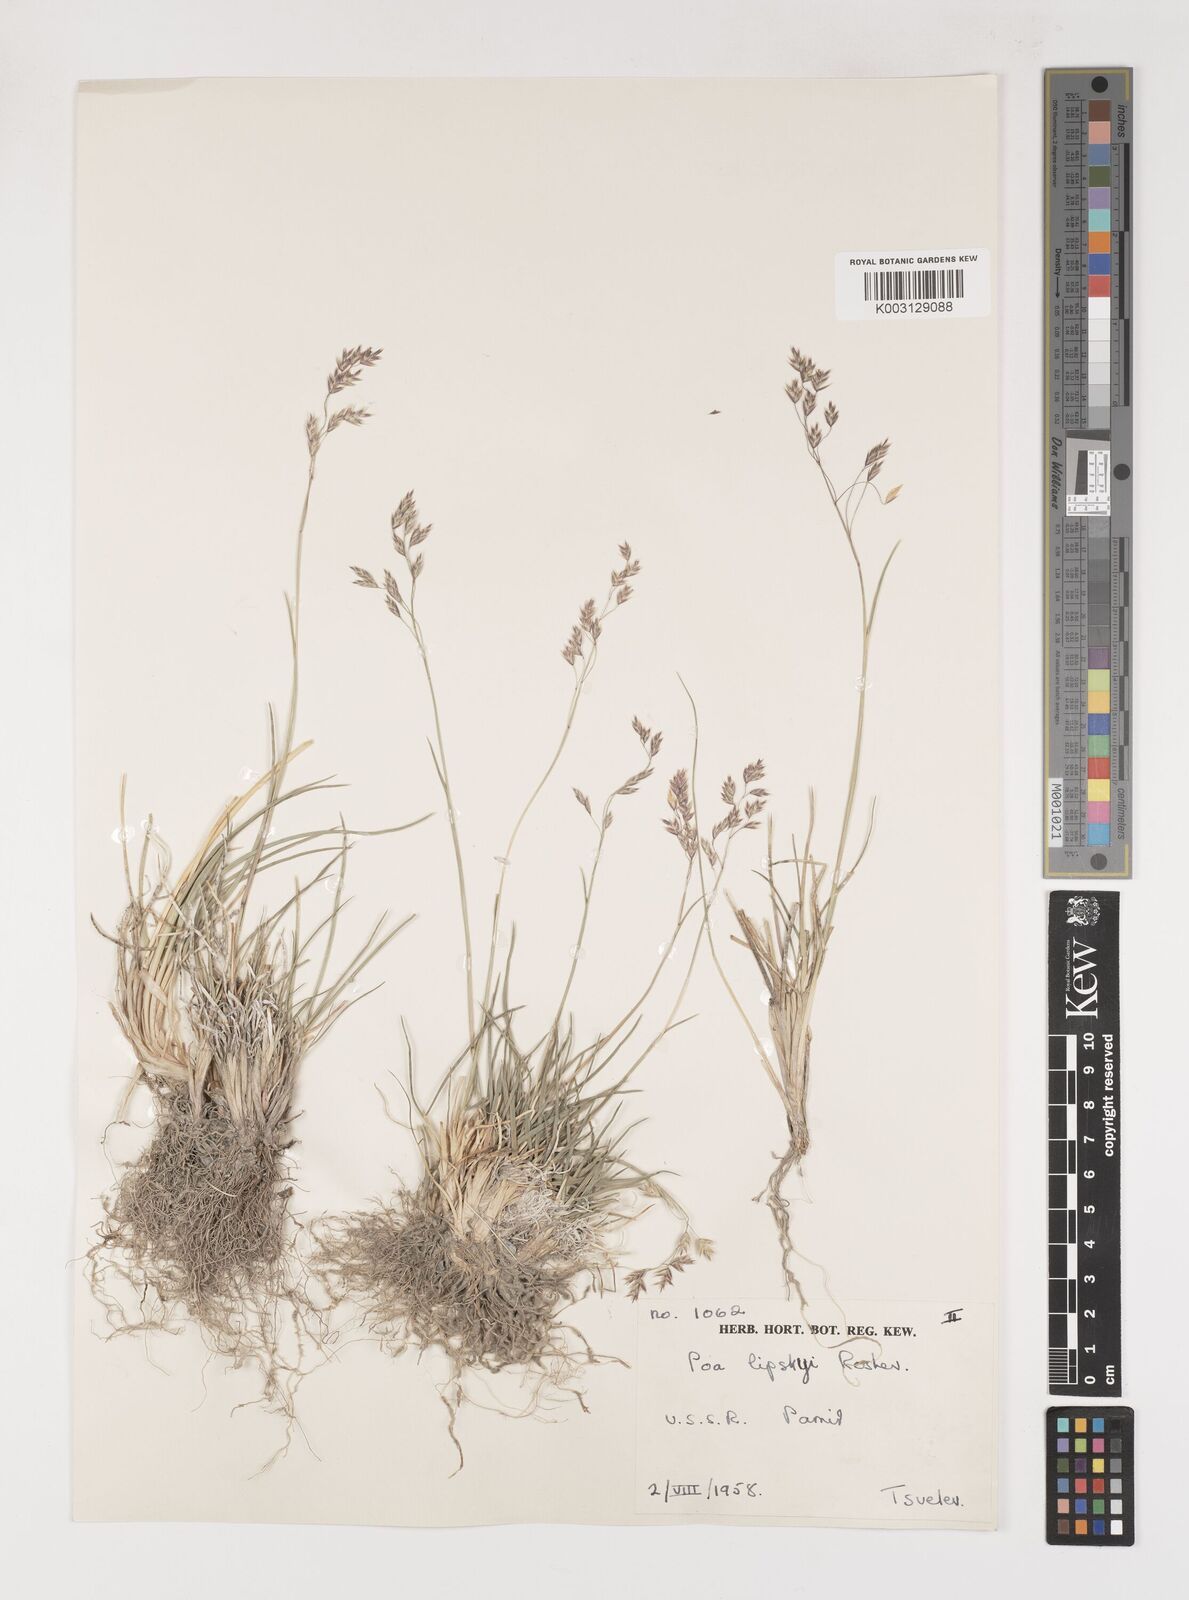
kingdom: Plantae
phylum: Tracheophyta
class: Liliopsida
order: Poales
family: Poaceae
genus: Poa
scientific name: Poa lipskyi
